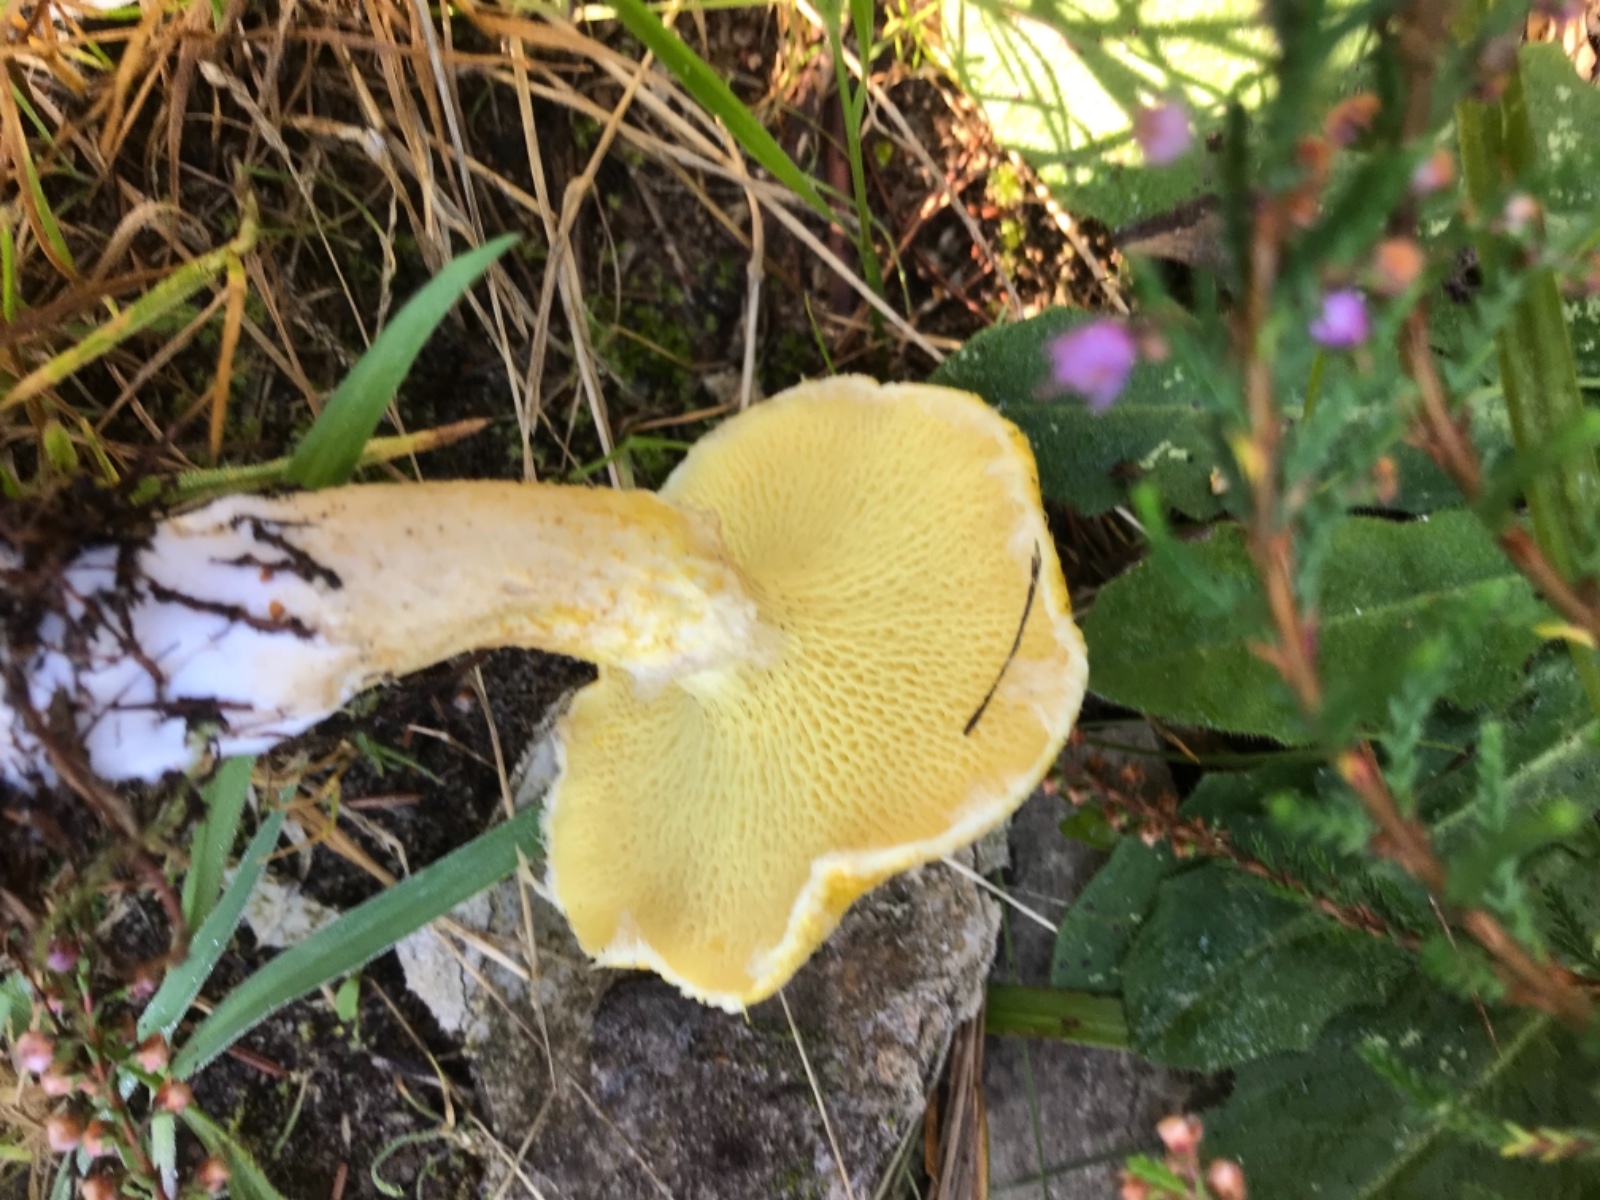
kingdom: Fungi
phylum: Basidiomycota
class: Agaricomycetes
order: Boletales
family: Suillaceae
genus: Suillus
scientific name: Suillus cavipes
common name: hulstokket slimrørhat, gul form
